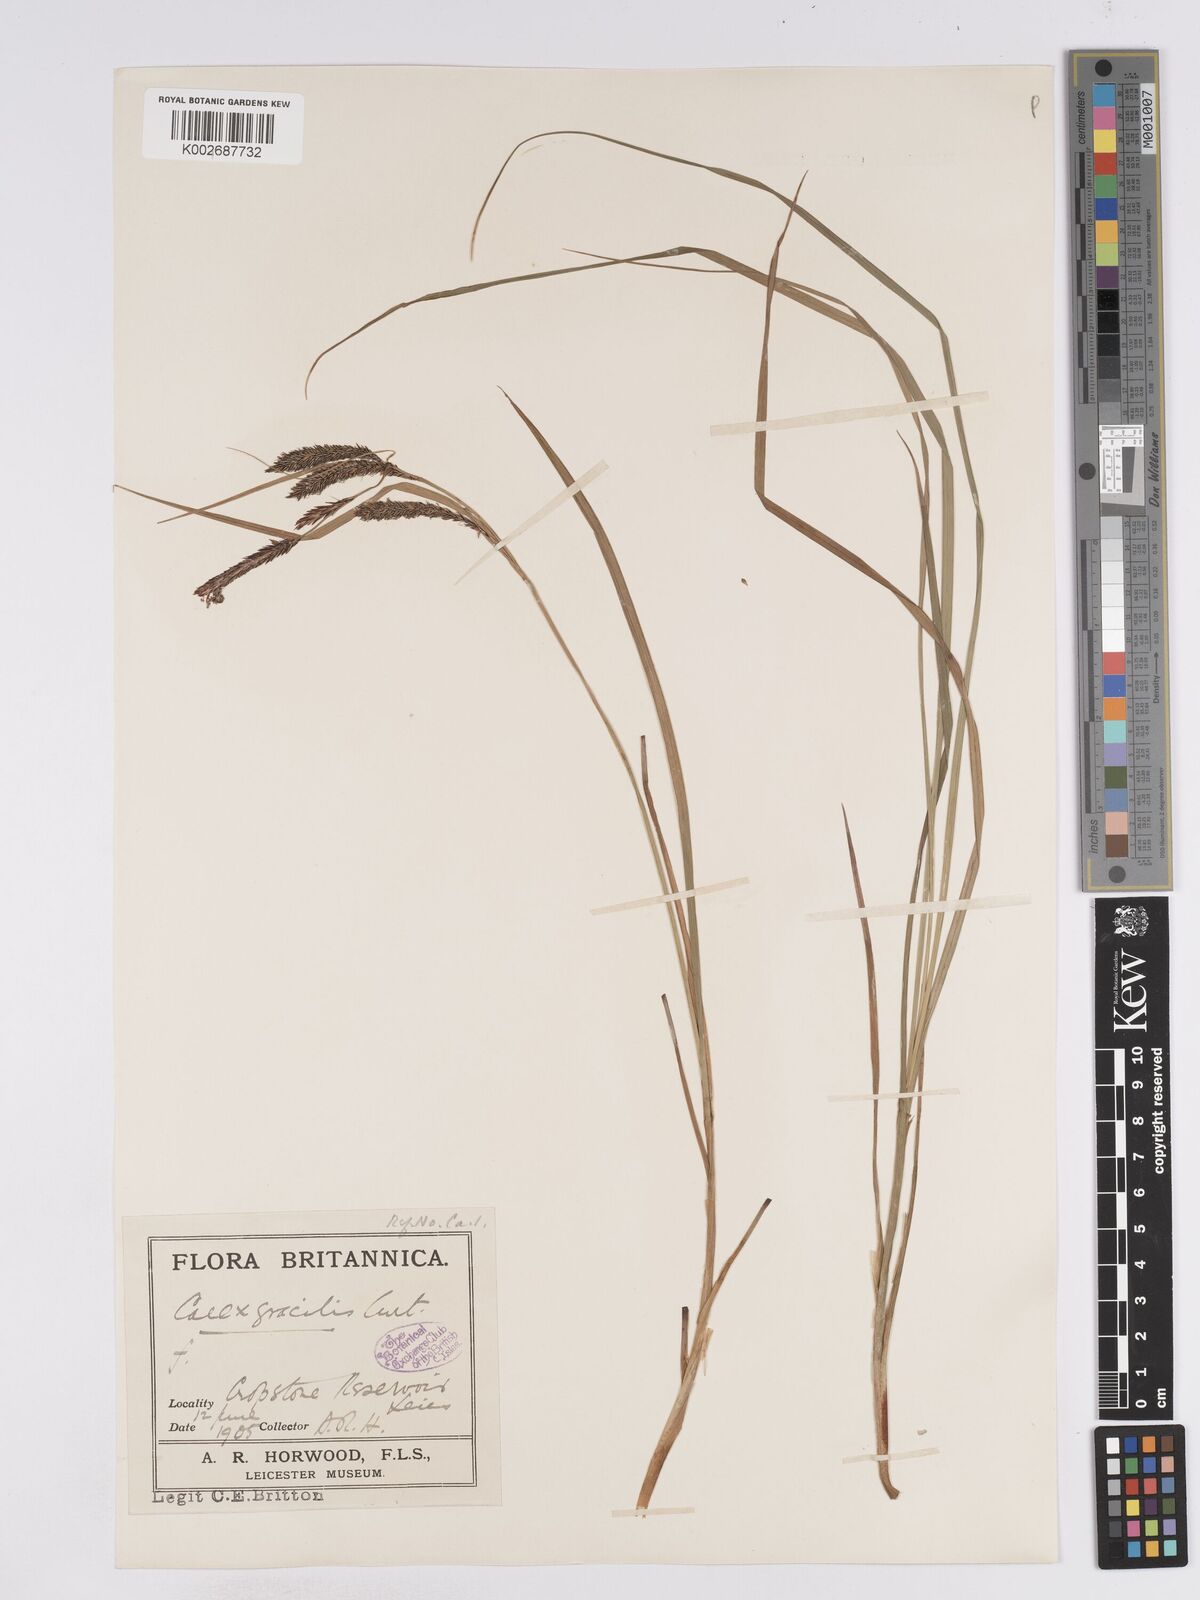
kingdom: Plantae
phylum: Tracheophyta
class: Liliopsida
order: Poales
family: Cyperaceae
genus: Carex
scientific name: Carex acuta
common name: Slender tufted-sedge
